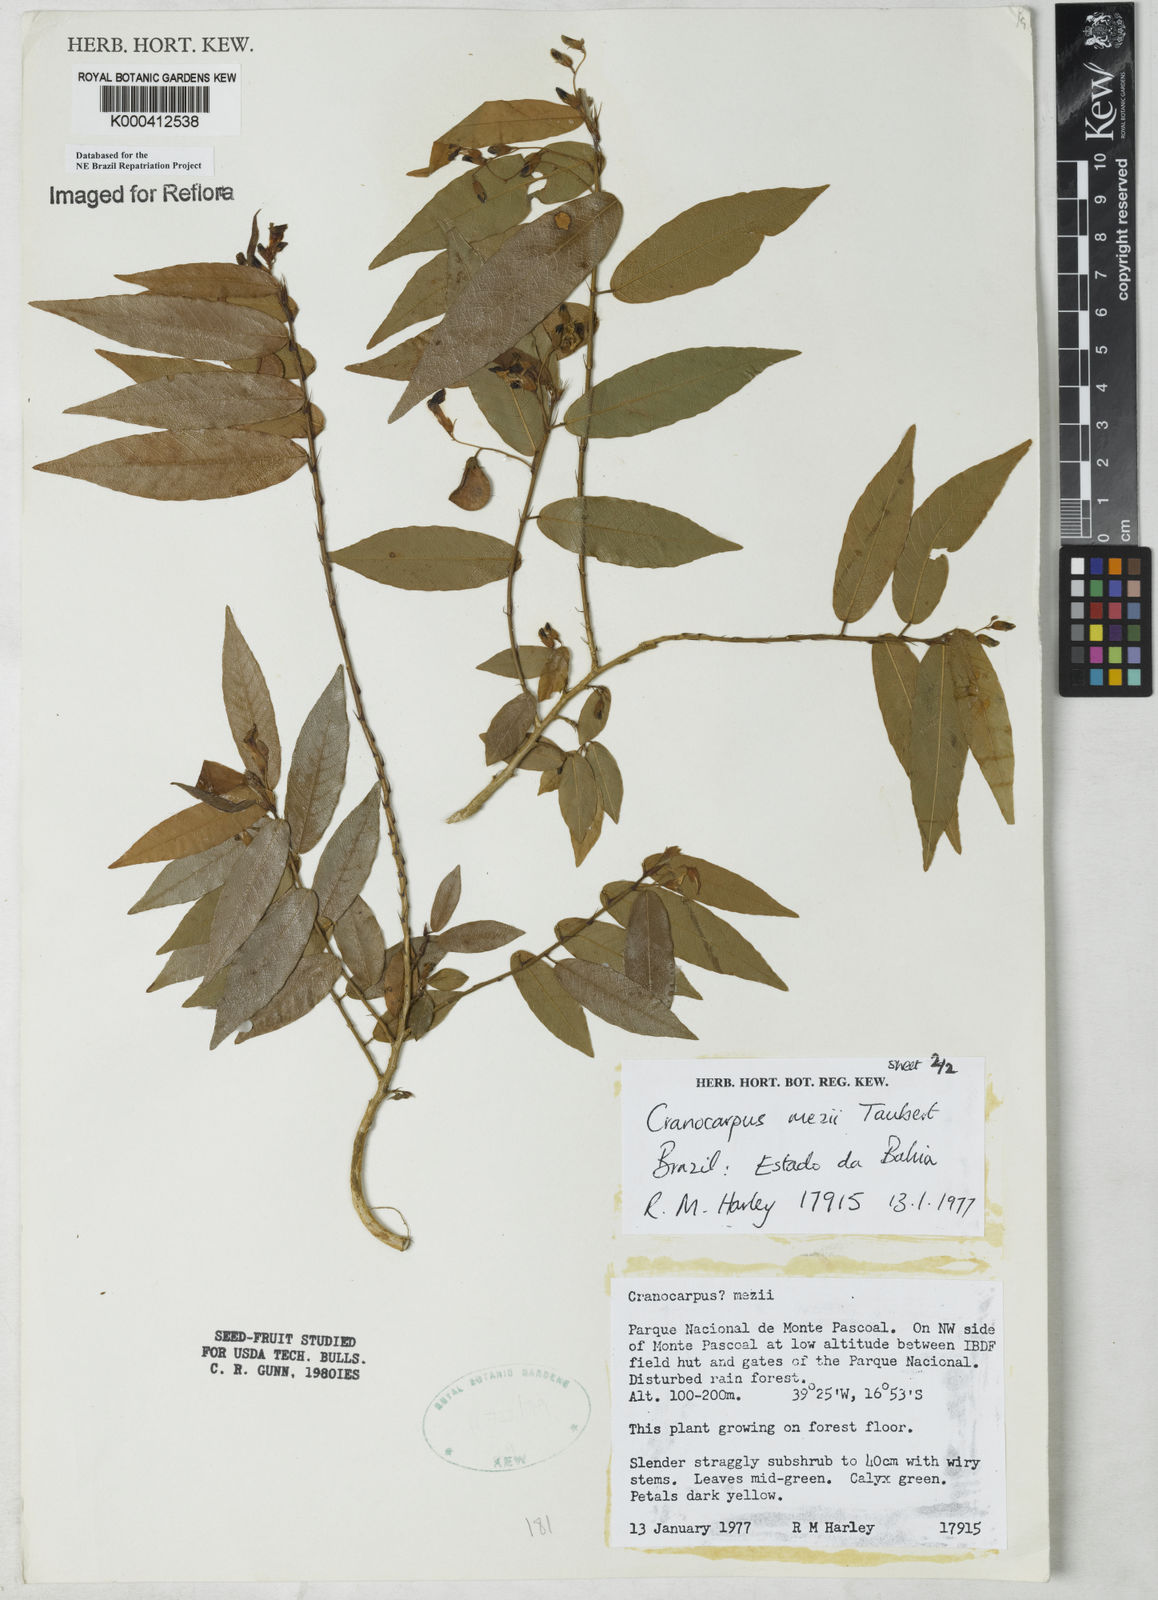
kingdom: Plantae
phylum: Tracheophyta
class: Magnoliopsida
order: Fabales
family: Fabaceae
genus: Cranocarpus
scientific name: Cranocarpus mezii
